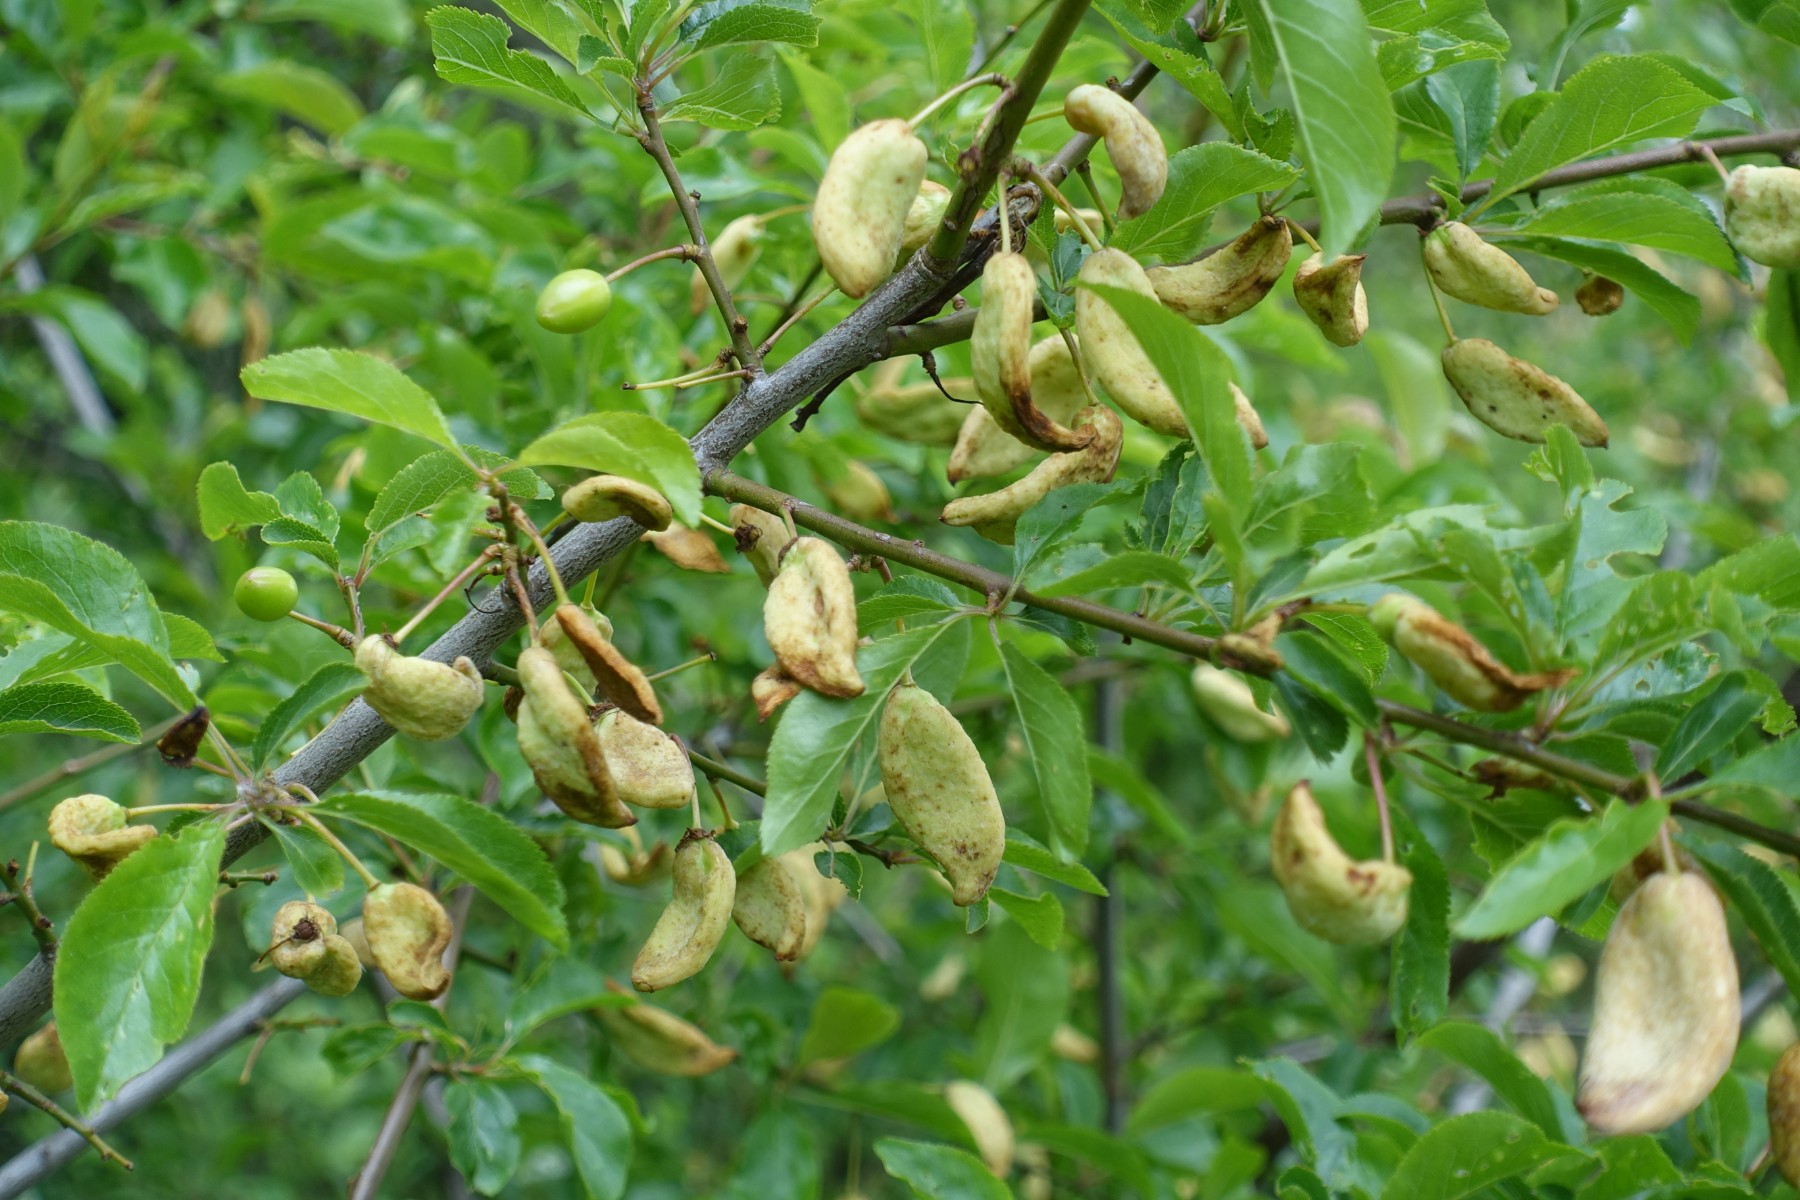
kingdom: Fungi
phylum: Ascomycota
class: Taphrinomycetes
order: Taphrinales
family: Taphrinaceae
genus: Taphrina
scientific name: Taphrina pruni
